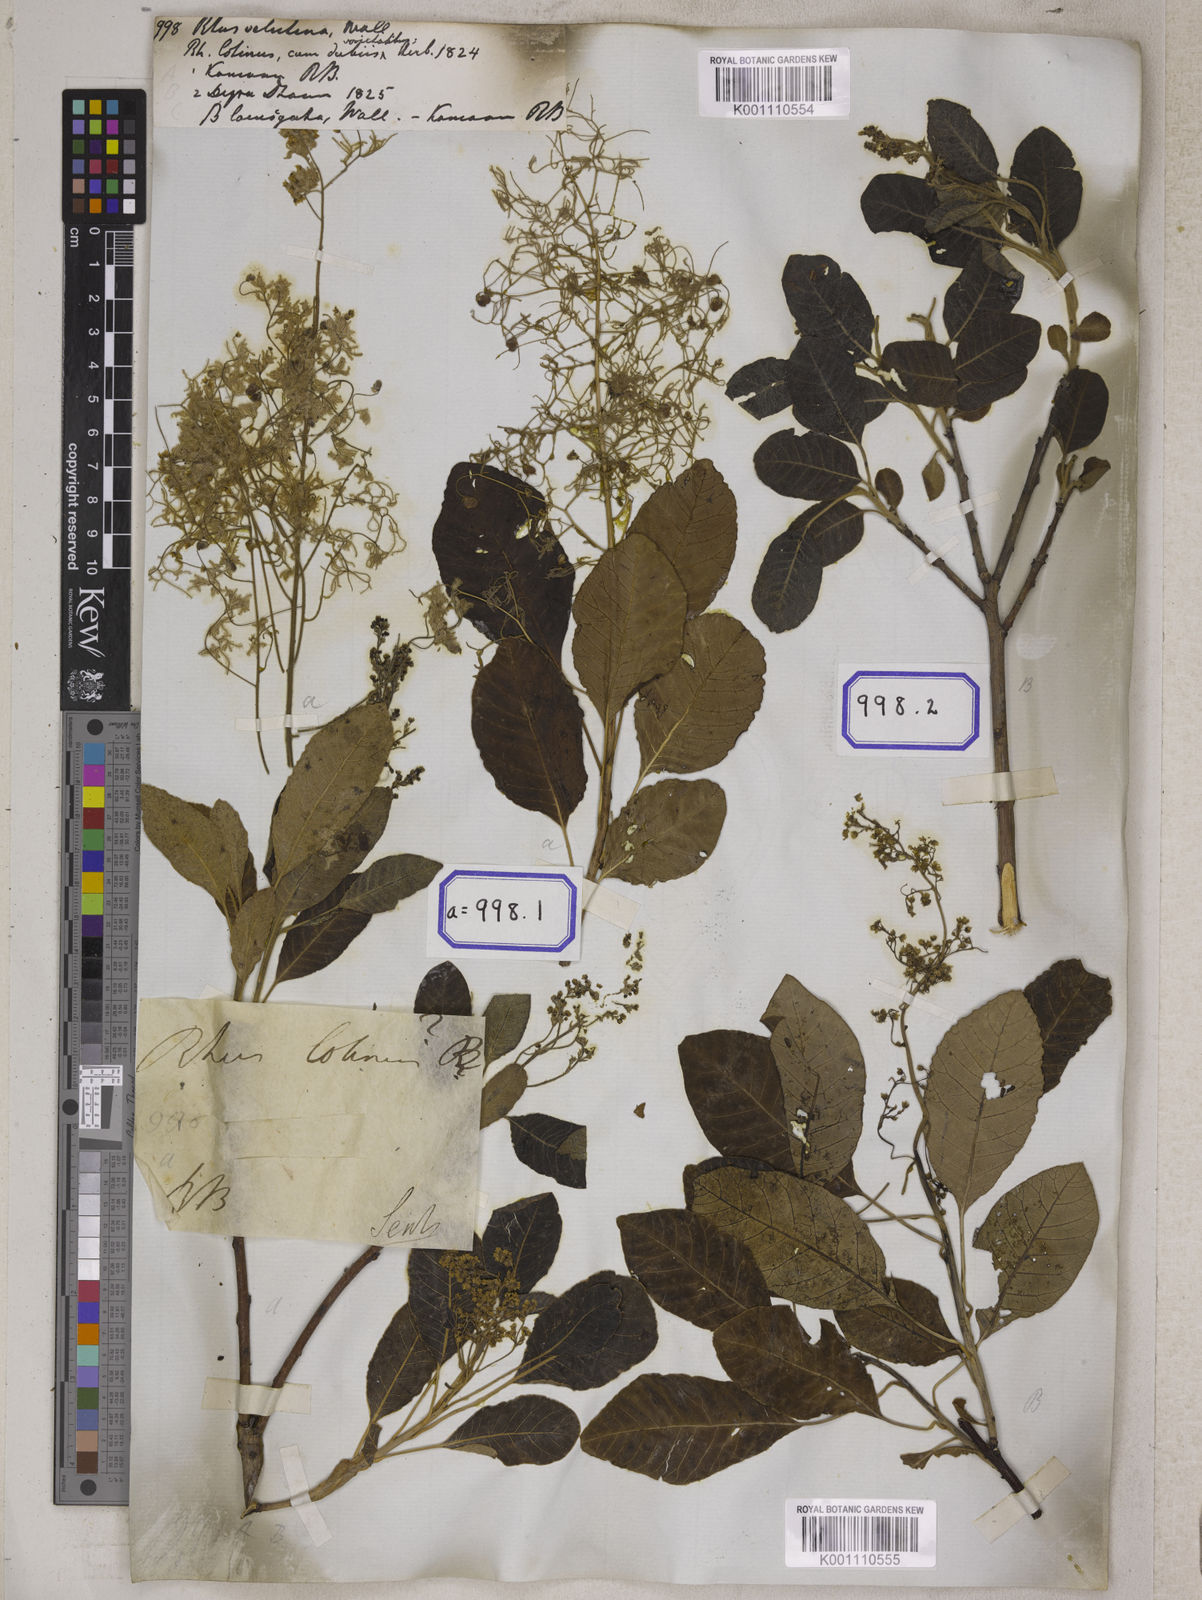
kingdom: Plantae
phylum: Tracheophyta
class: Magnoliopsida
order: Sapindales
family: Anacardiaceae
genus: Rhus
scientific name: Rhus
